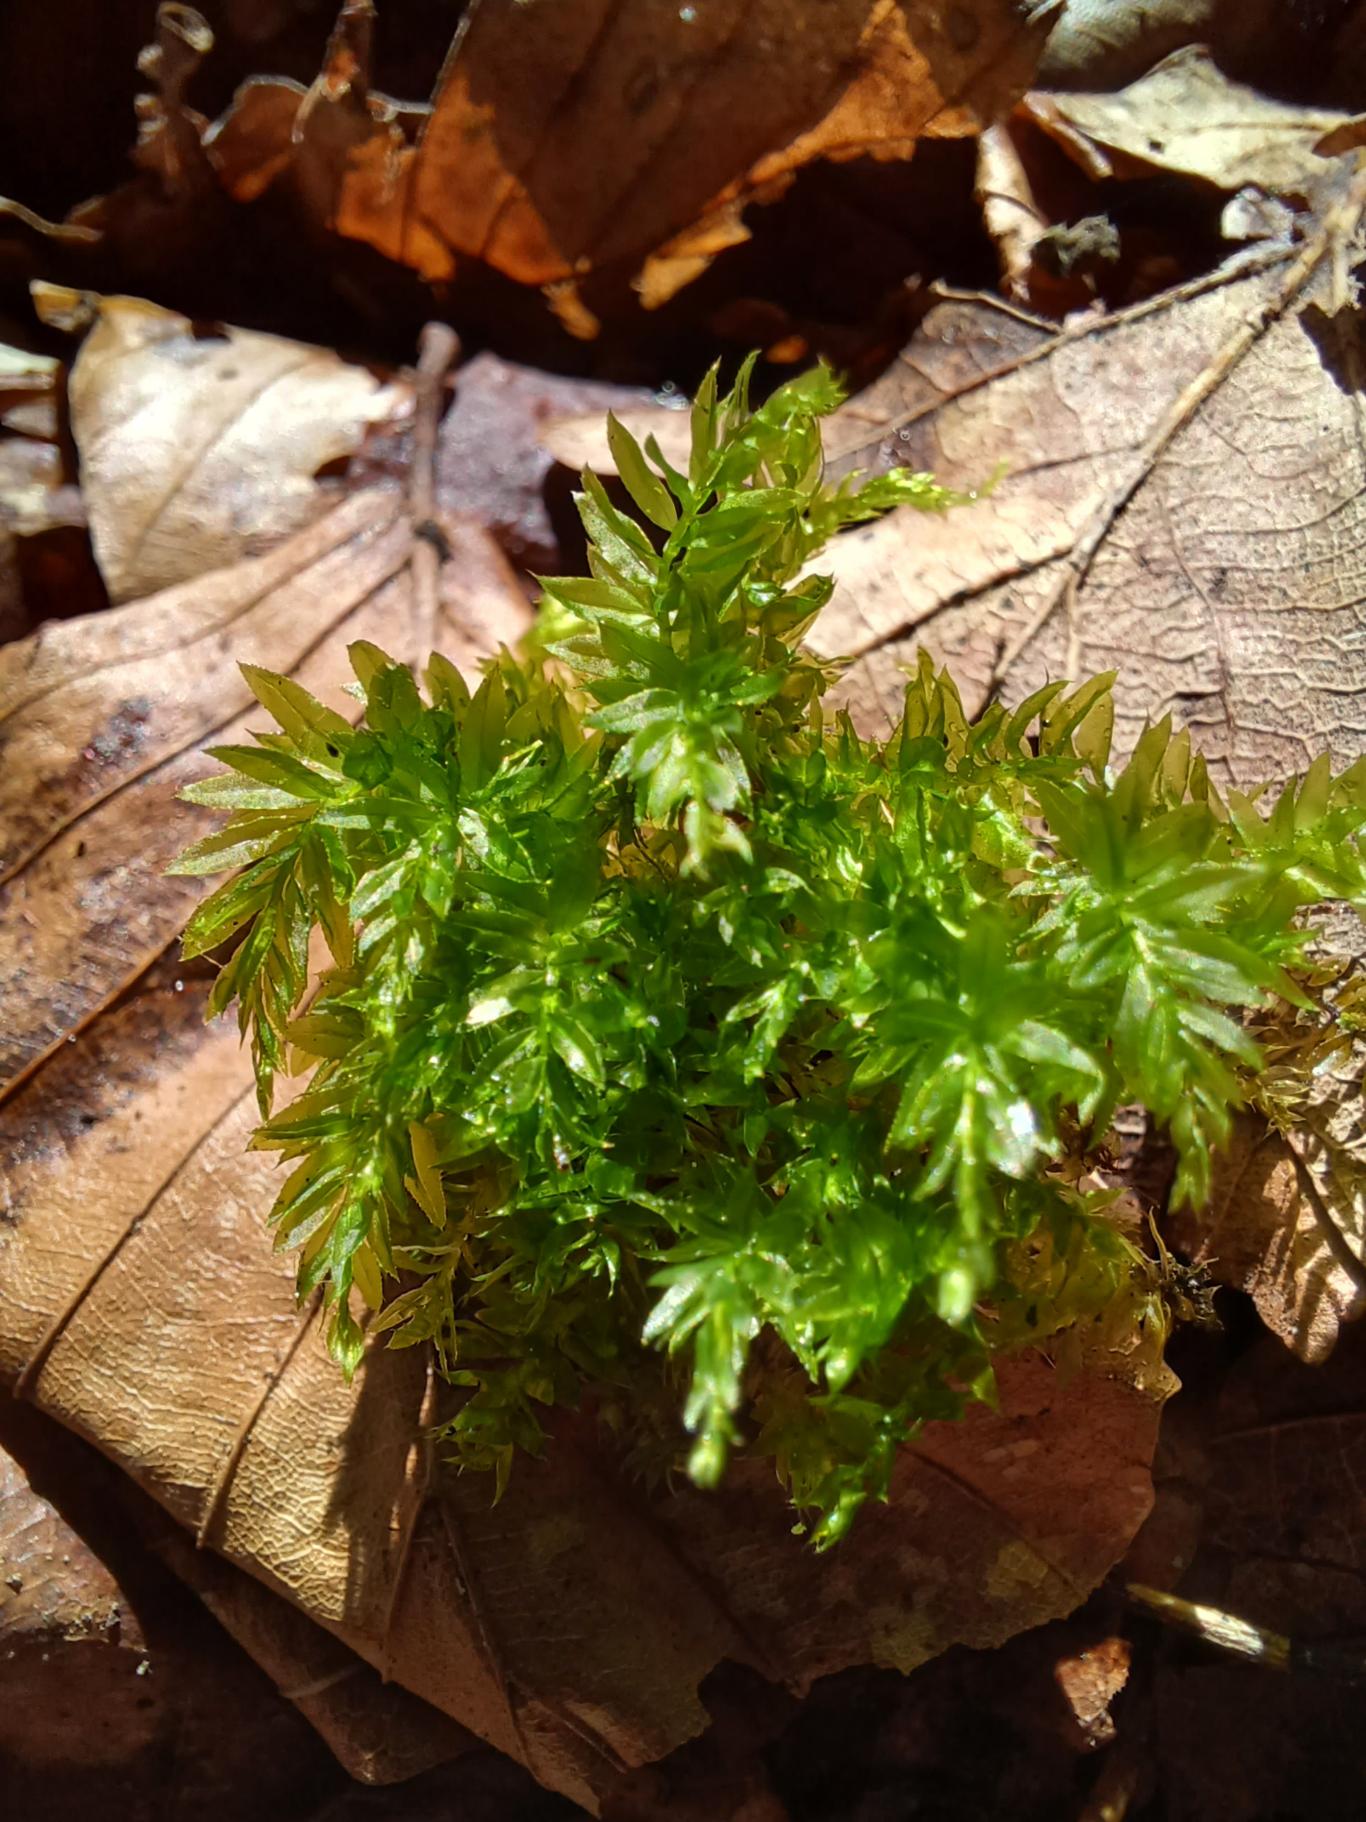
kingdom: Plantae
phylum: Bryophyta
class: Bryopsida
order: Bryales
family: Mniaceae
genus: Mnium
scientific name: Mnium hornum
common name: Brunfiltet stjernemos
